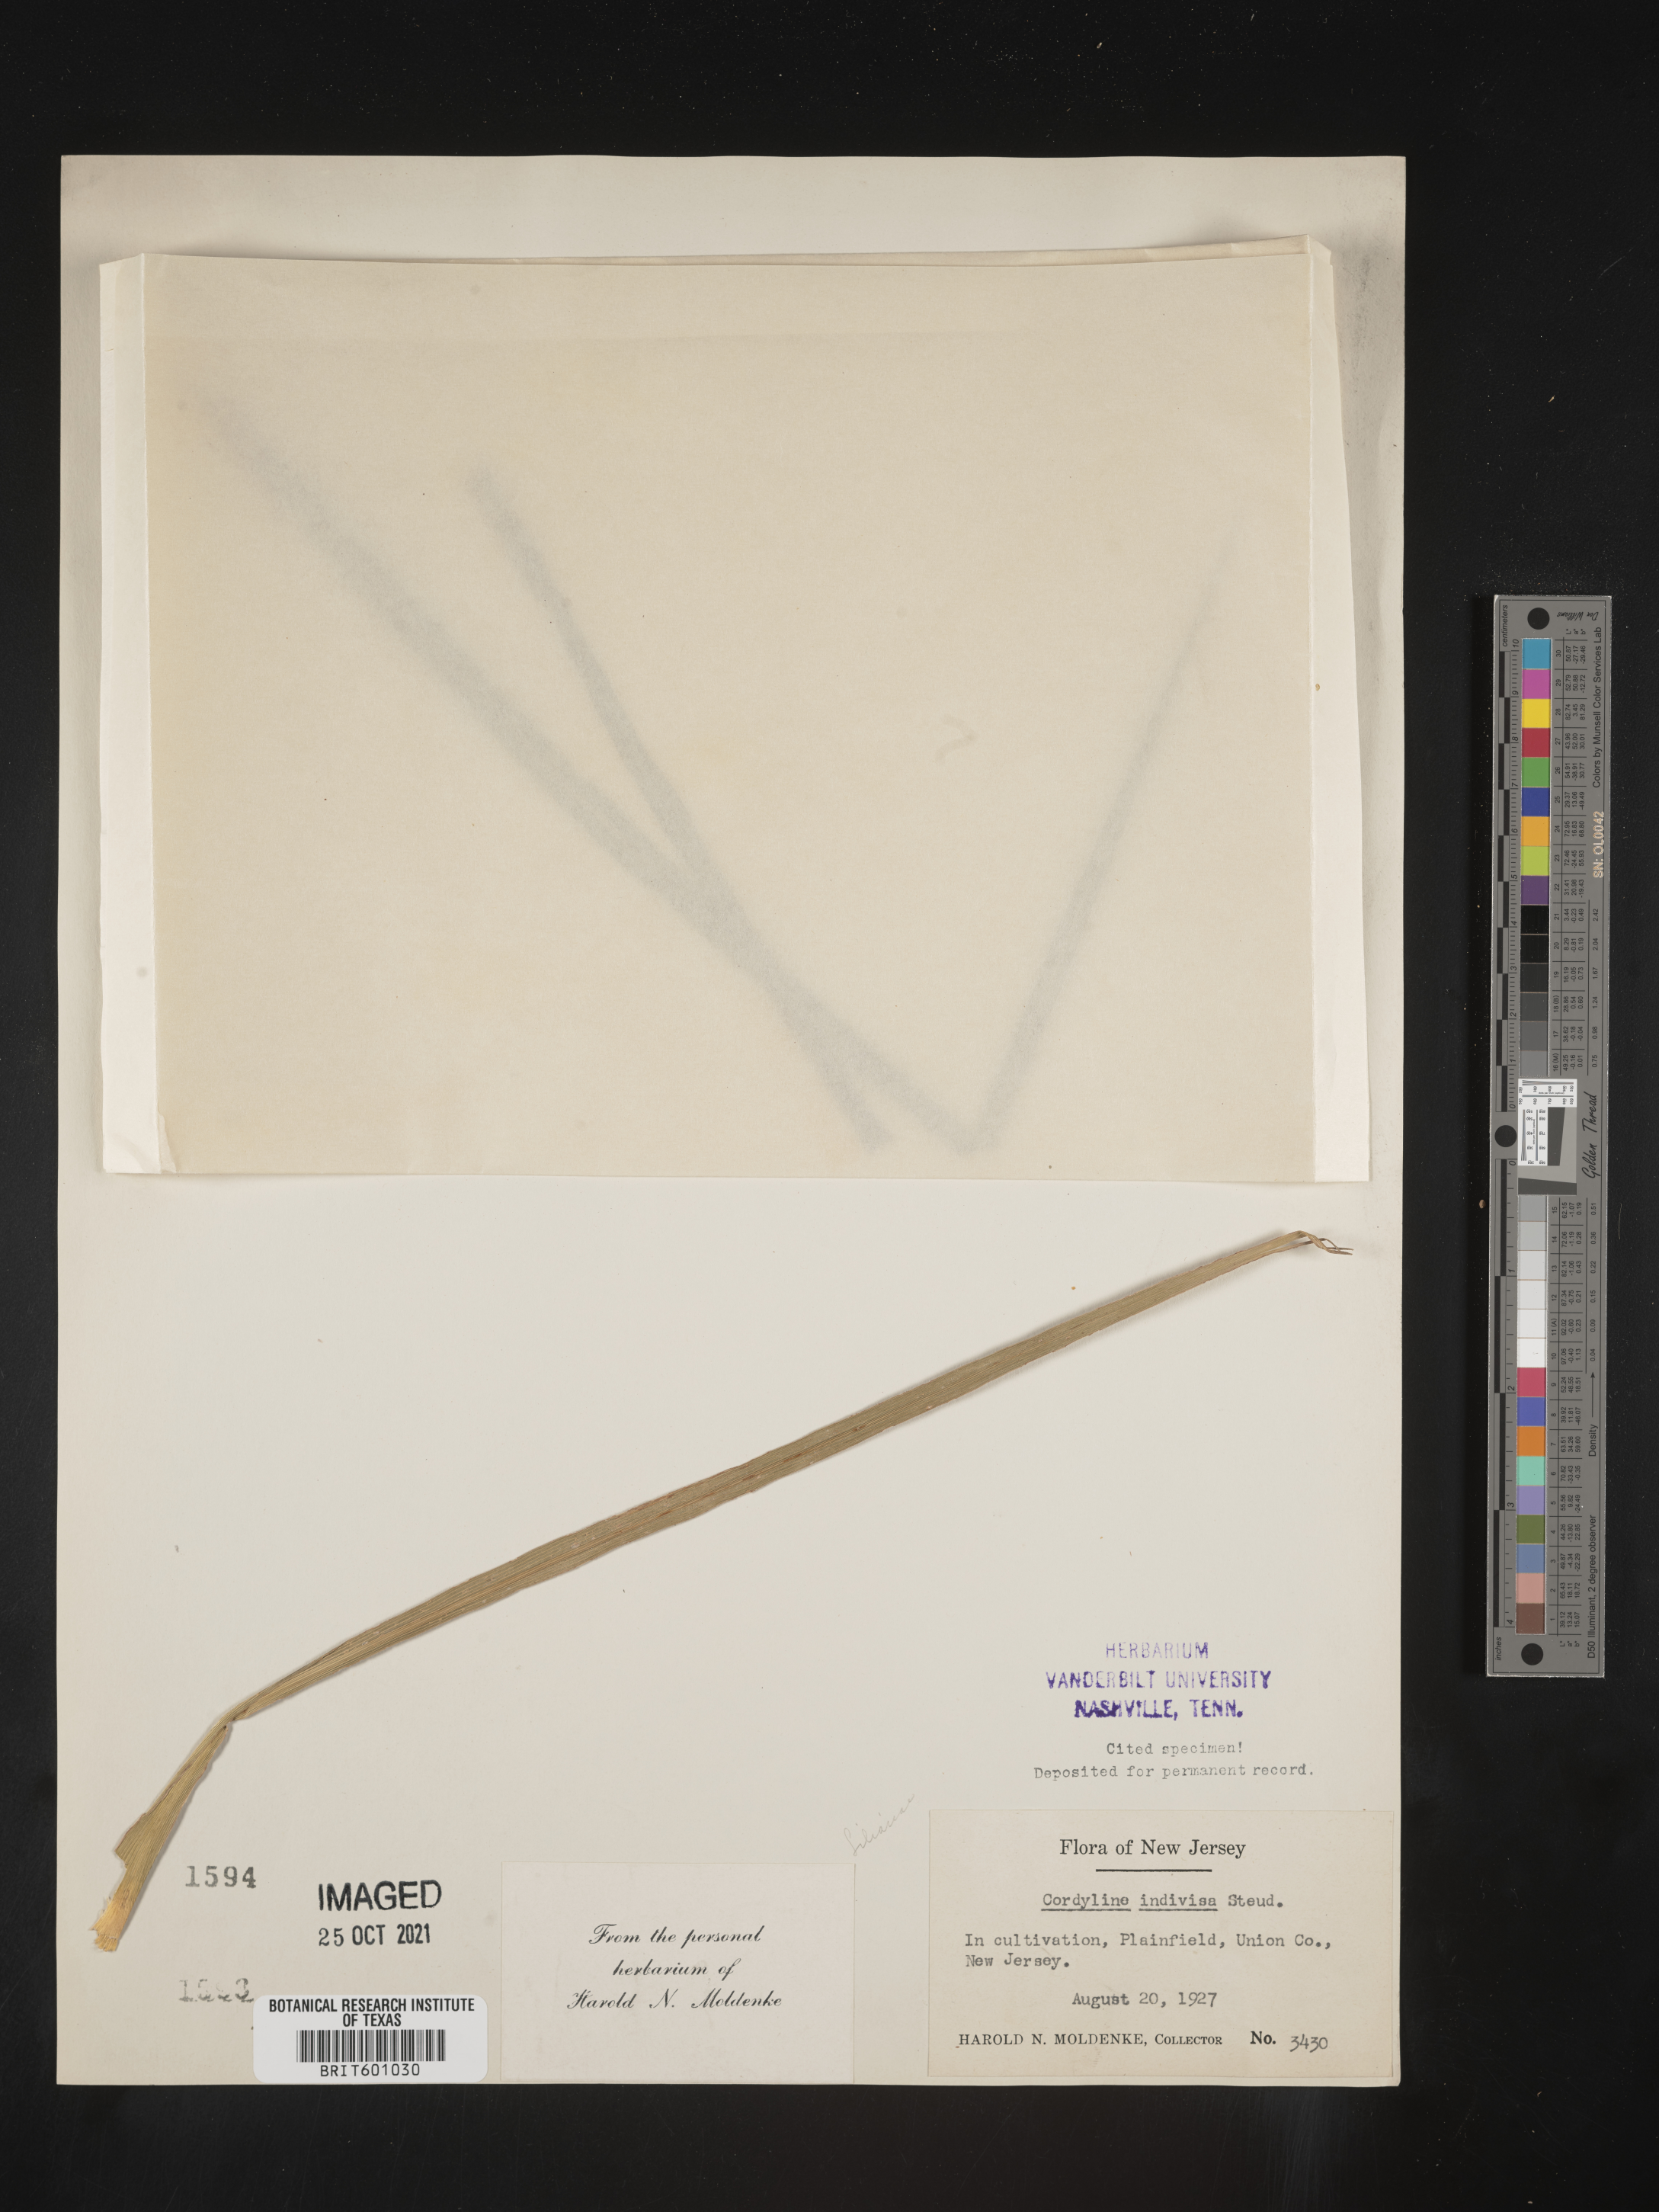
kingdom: Plantae
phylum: Tracheophyta
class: Liliopsida
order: Asparagales
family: Asparagaceae
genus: Cordyline
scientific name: Cordyline indivisa
